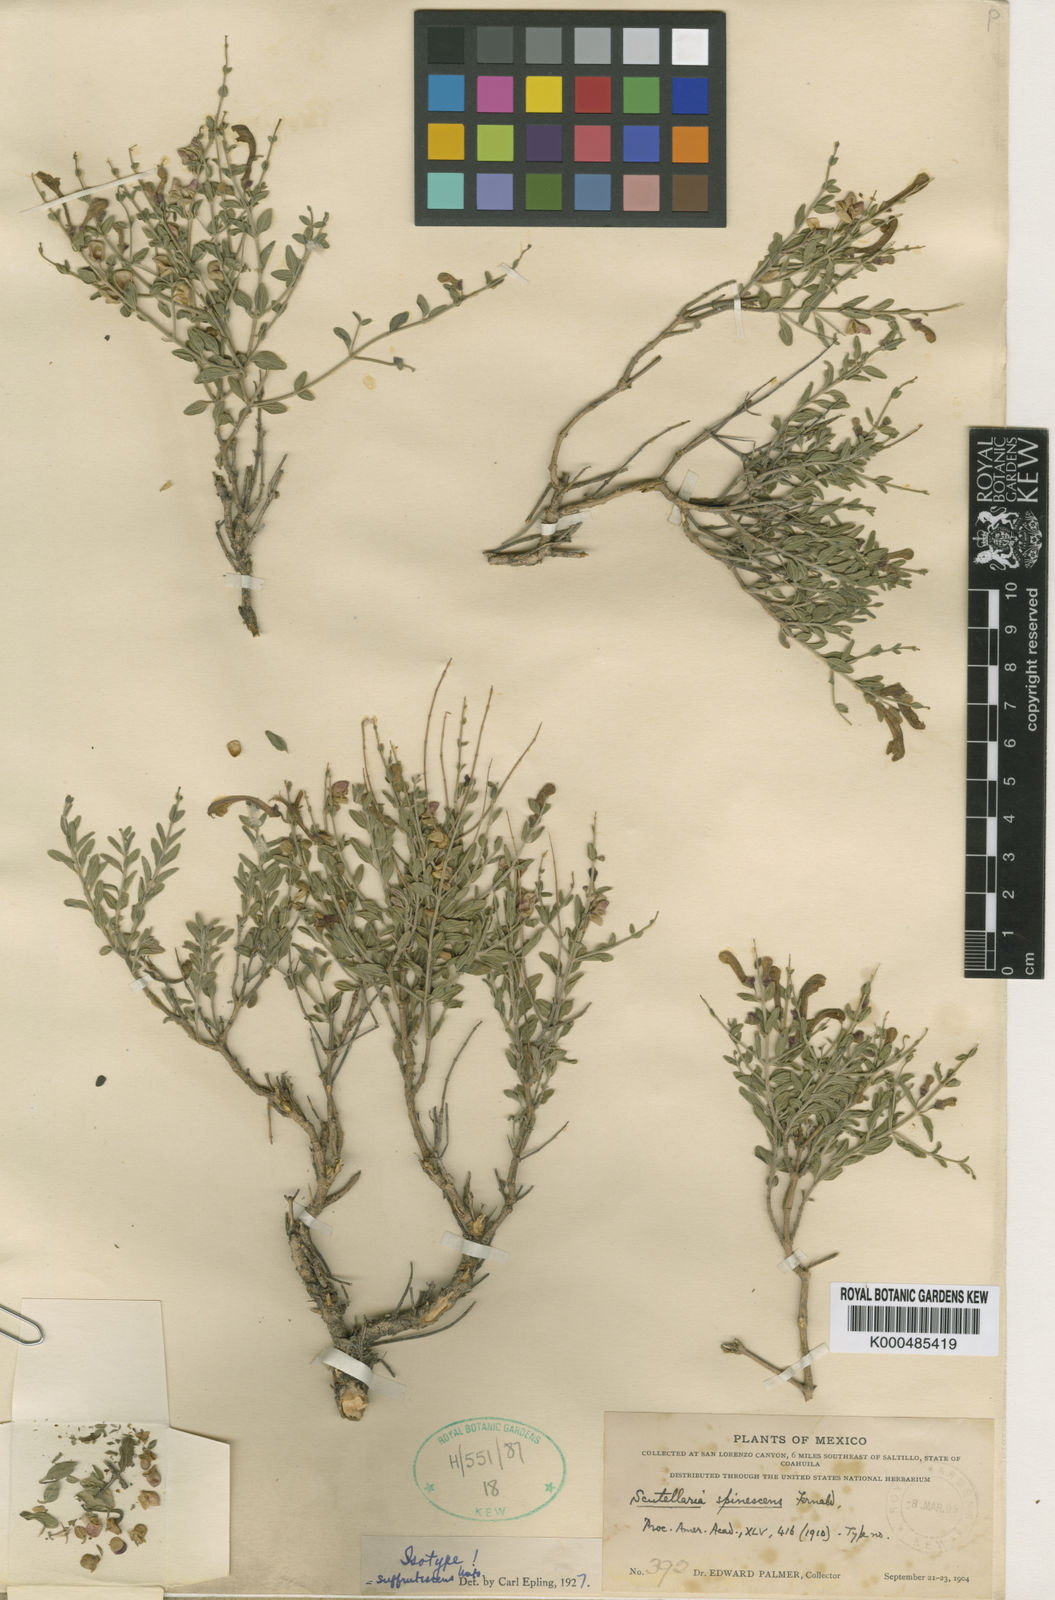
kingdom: Plantae
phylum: Tracheophyta
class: Magnoliopsida
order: Lamiales
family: Lamiaceae
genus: Scutellaria
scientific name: Scutellaria suffrutescens
